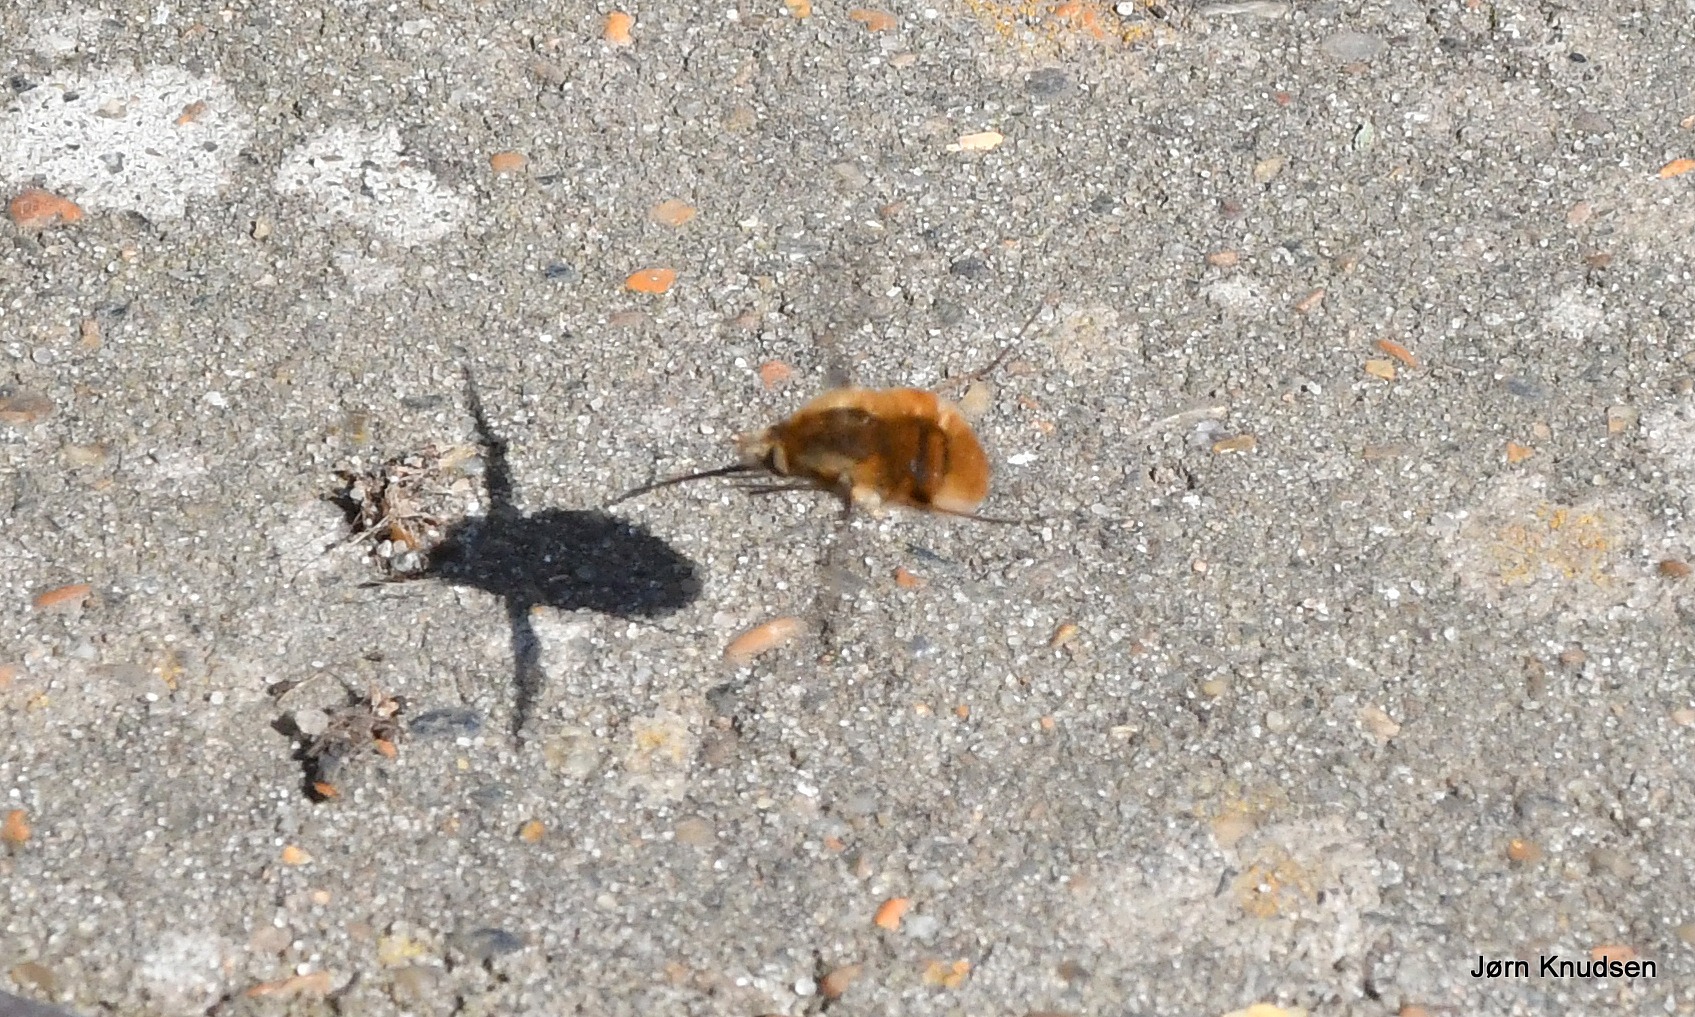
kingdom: Animalia
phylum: Arthropoda
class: Insecta
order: Diptera
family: Bombyliidae
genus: Bombylius
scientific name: Bombylius major
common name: Stor humleflue
